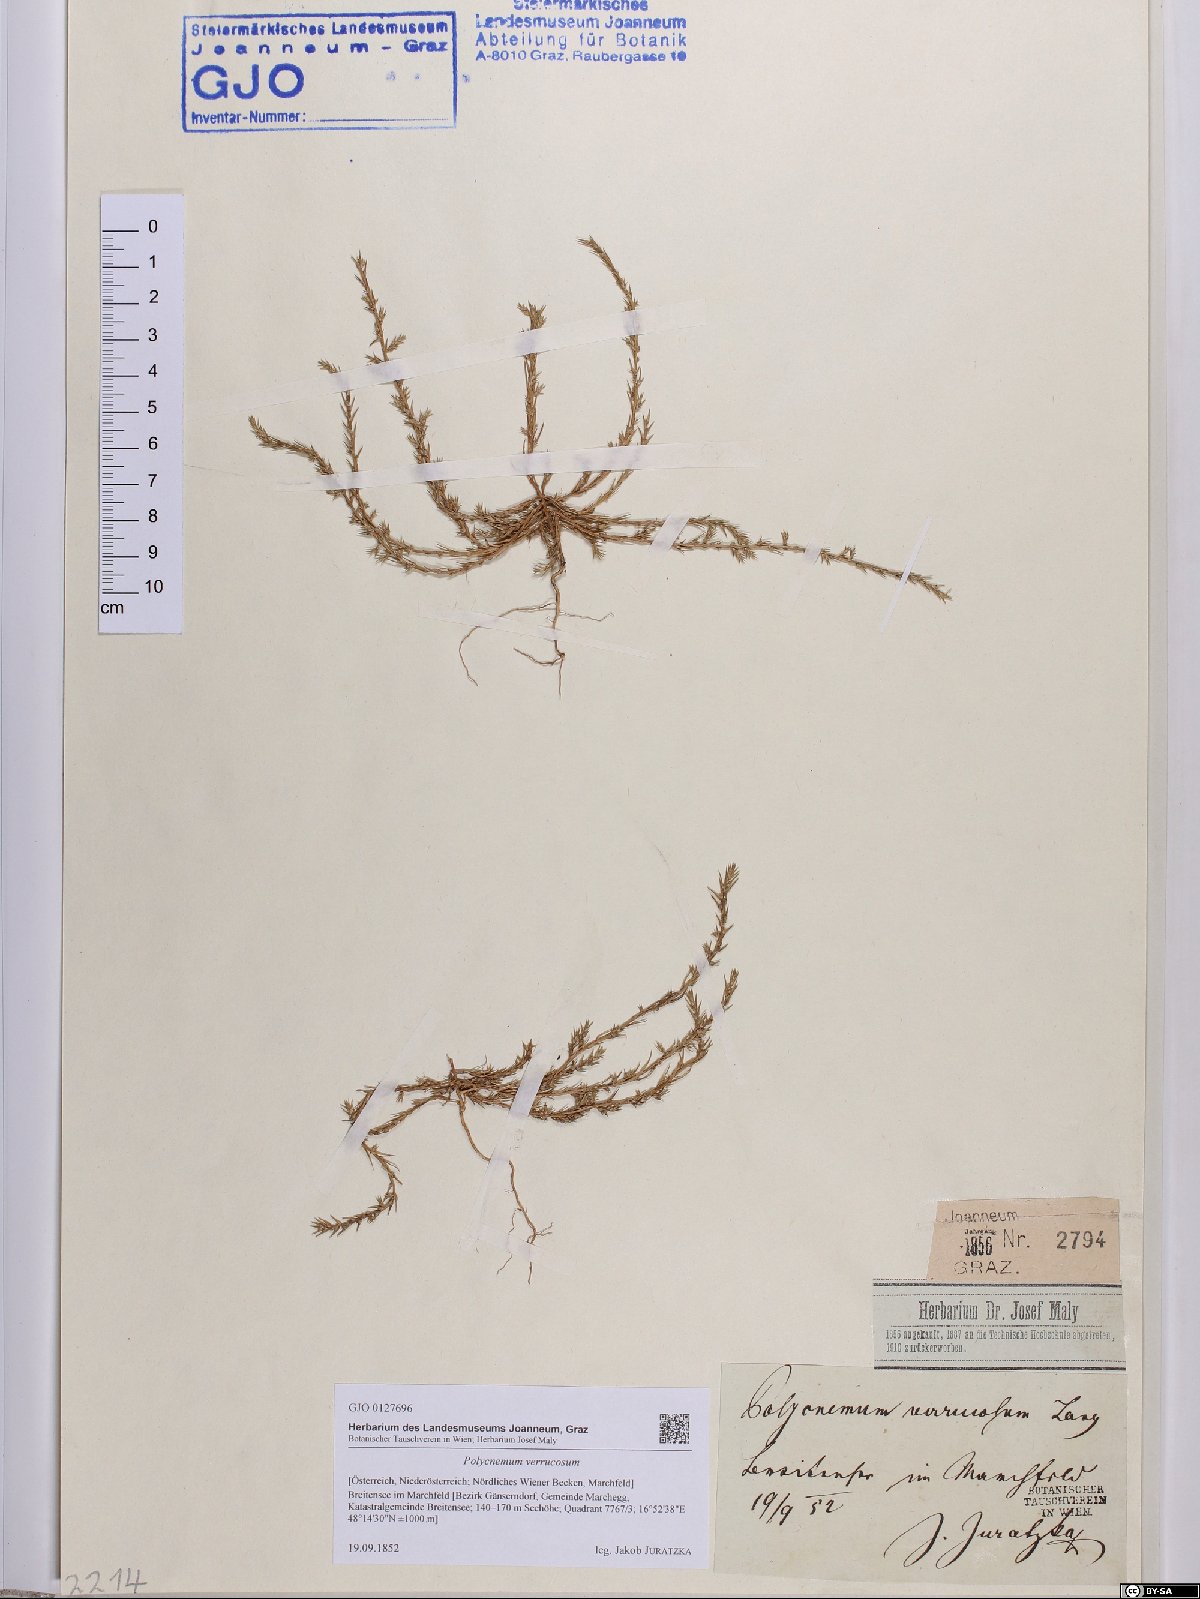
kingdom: Plantae
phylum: Tracheophyta
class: Magnoliopsida
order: Caryophyllales
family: Amaranthaceae
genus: Polycnemum
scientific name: Polycnemum verrucosum
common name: Warty needleleaf
